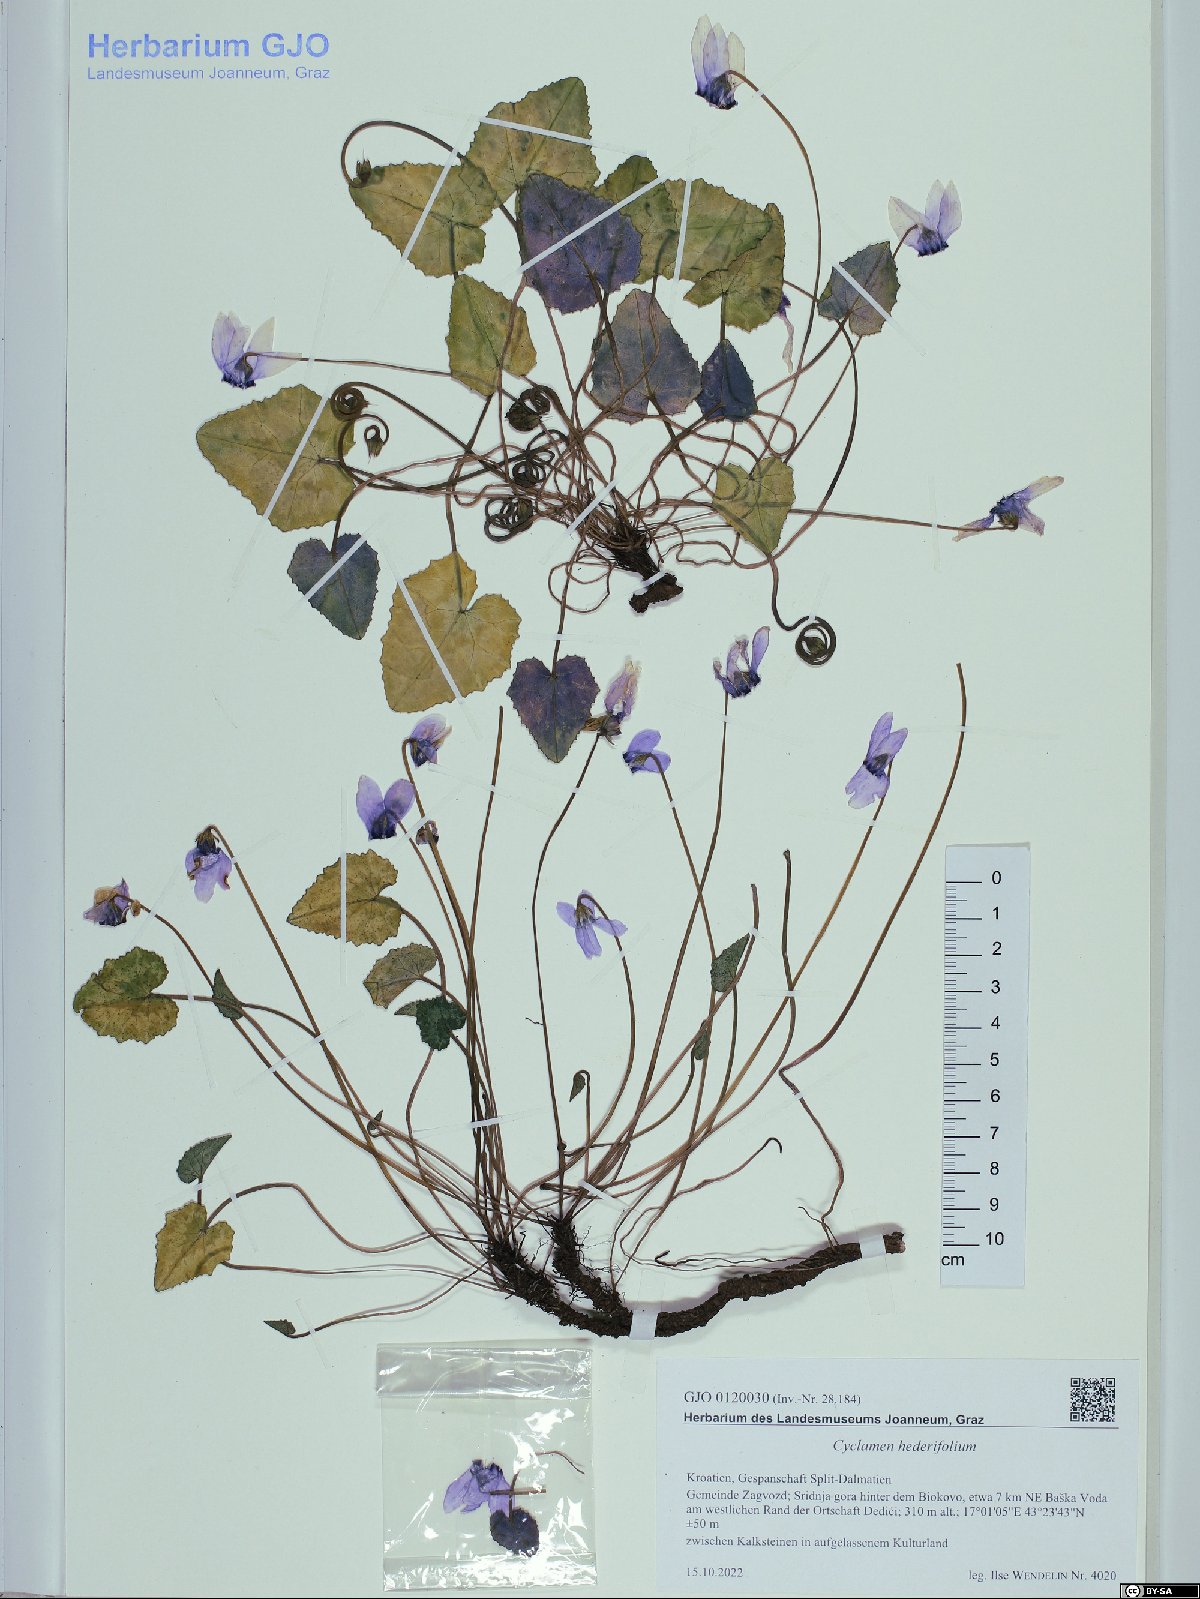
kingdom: Plantae
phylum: Tracheophyta
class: Magnoliopsida
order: Ericales
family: Primulaceae
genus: Cyclamen
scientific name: Cyclamen hederifolium
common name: Sowbread
